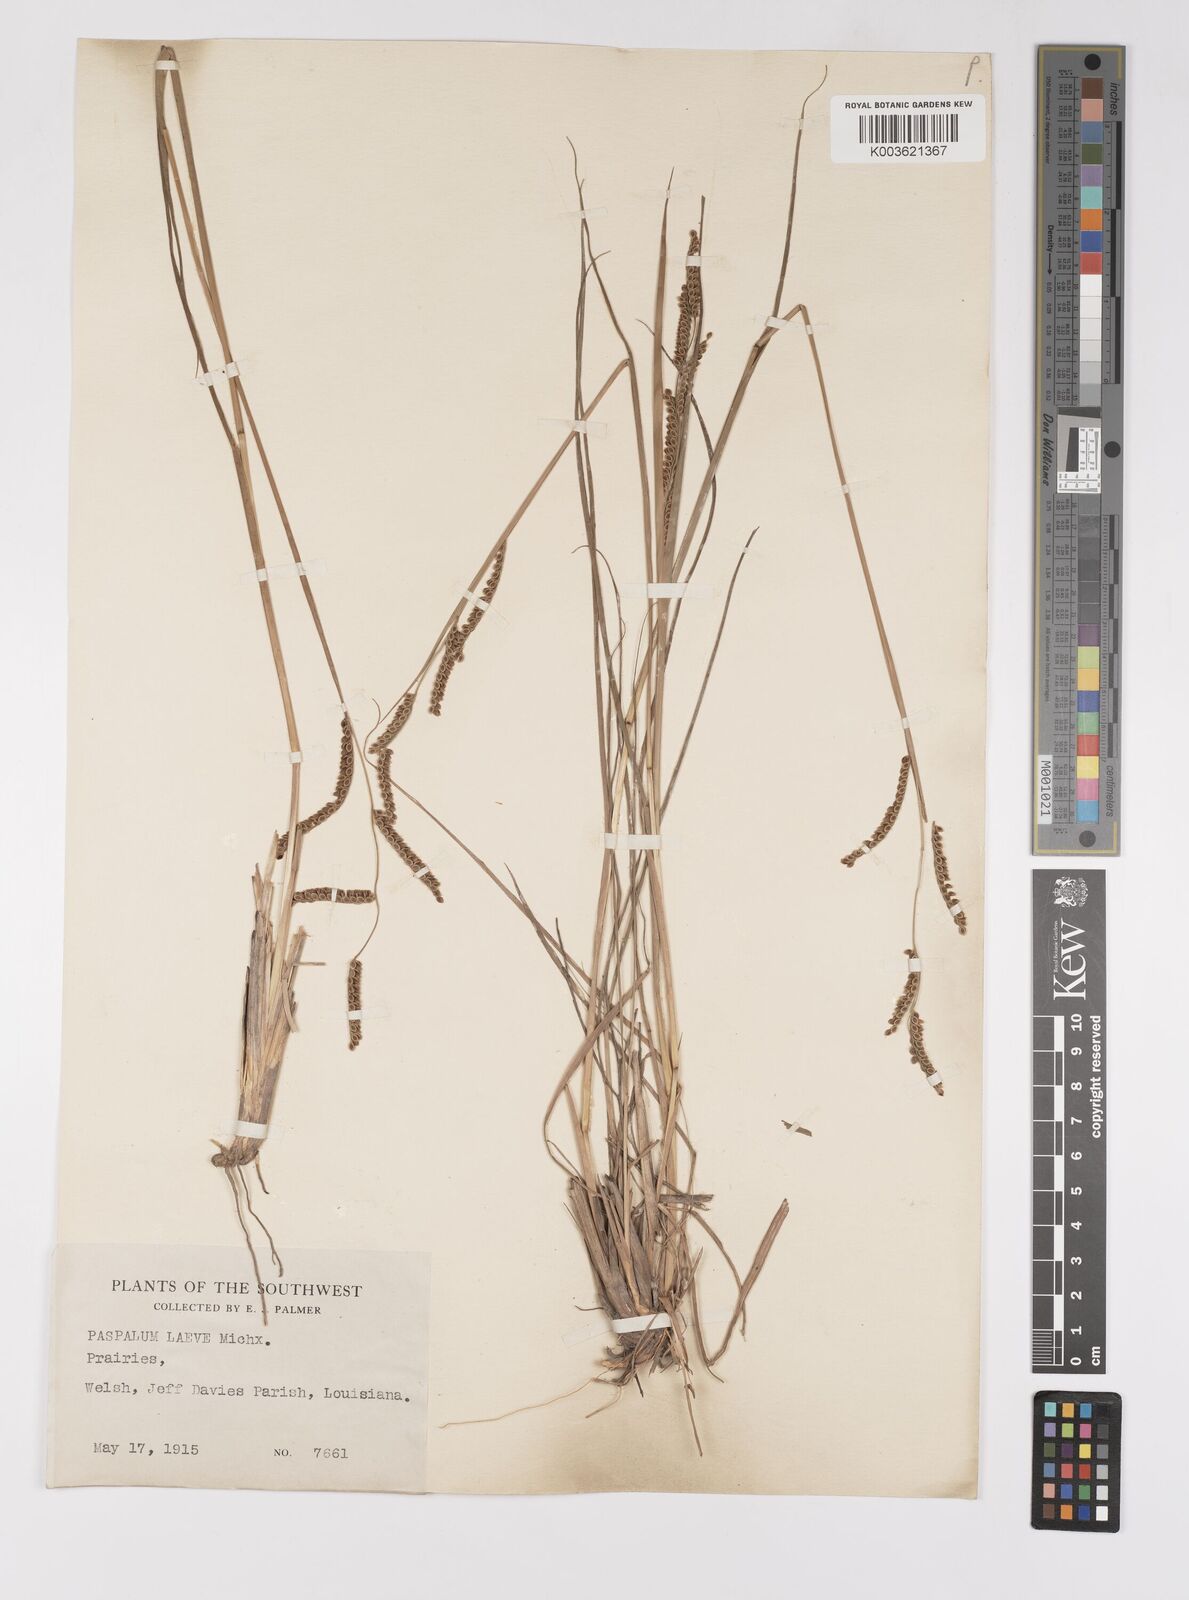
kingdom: Plantae
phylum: Tracheophyta
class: Liliopsida
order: Poales
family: Poaceae
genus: Paspalum
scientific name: Paspalum plicatulum
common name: Top paspalum
